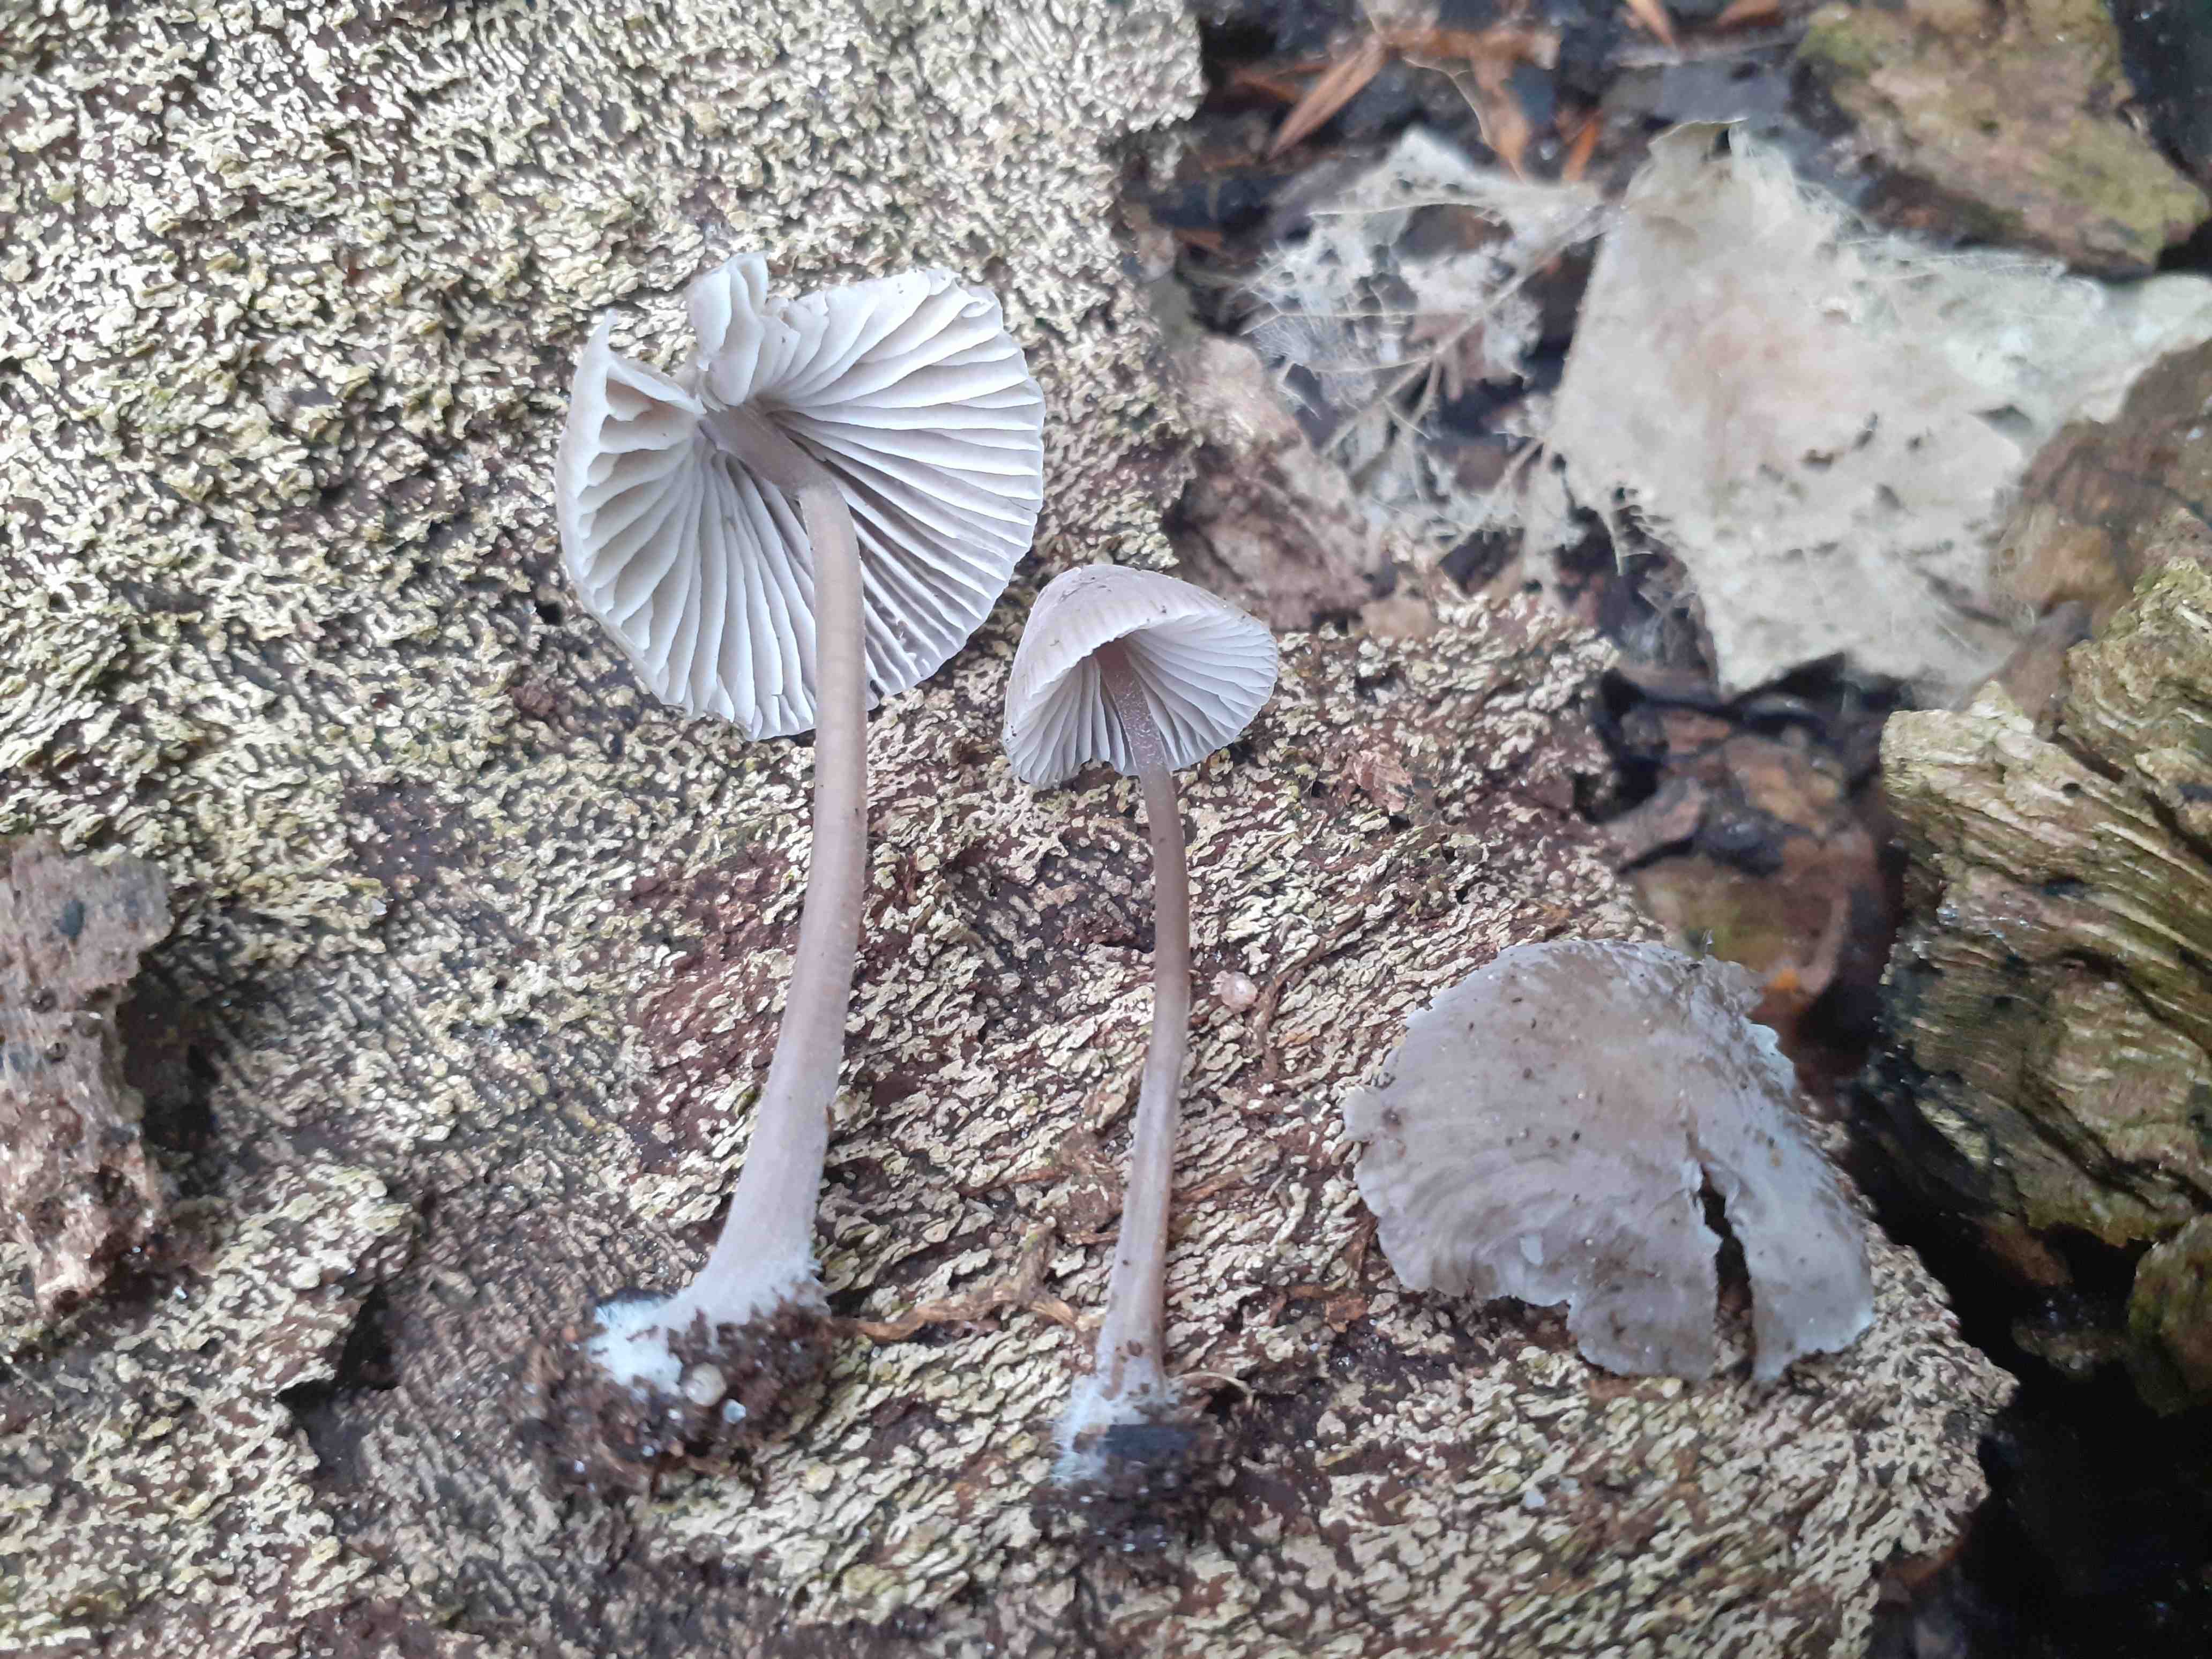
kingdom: Fungi
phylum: Basidiomycota
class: Agaricomycetes
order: Agaricales
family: Mycenaceae
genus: Mycena
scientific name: Mycena leptocephala
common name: klor-huesvamp
